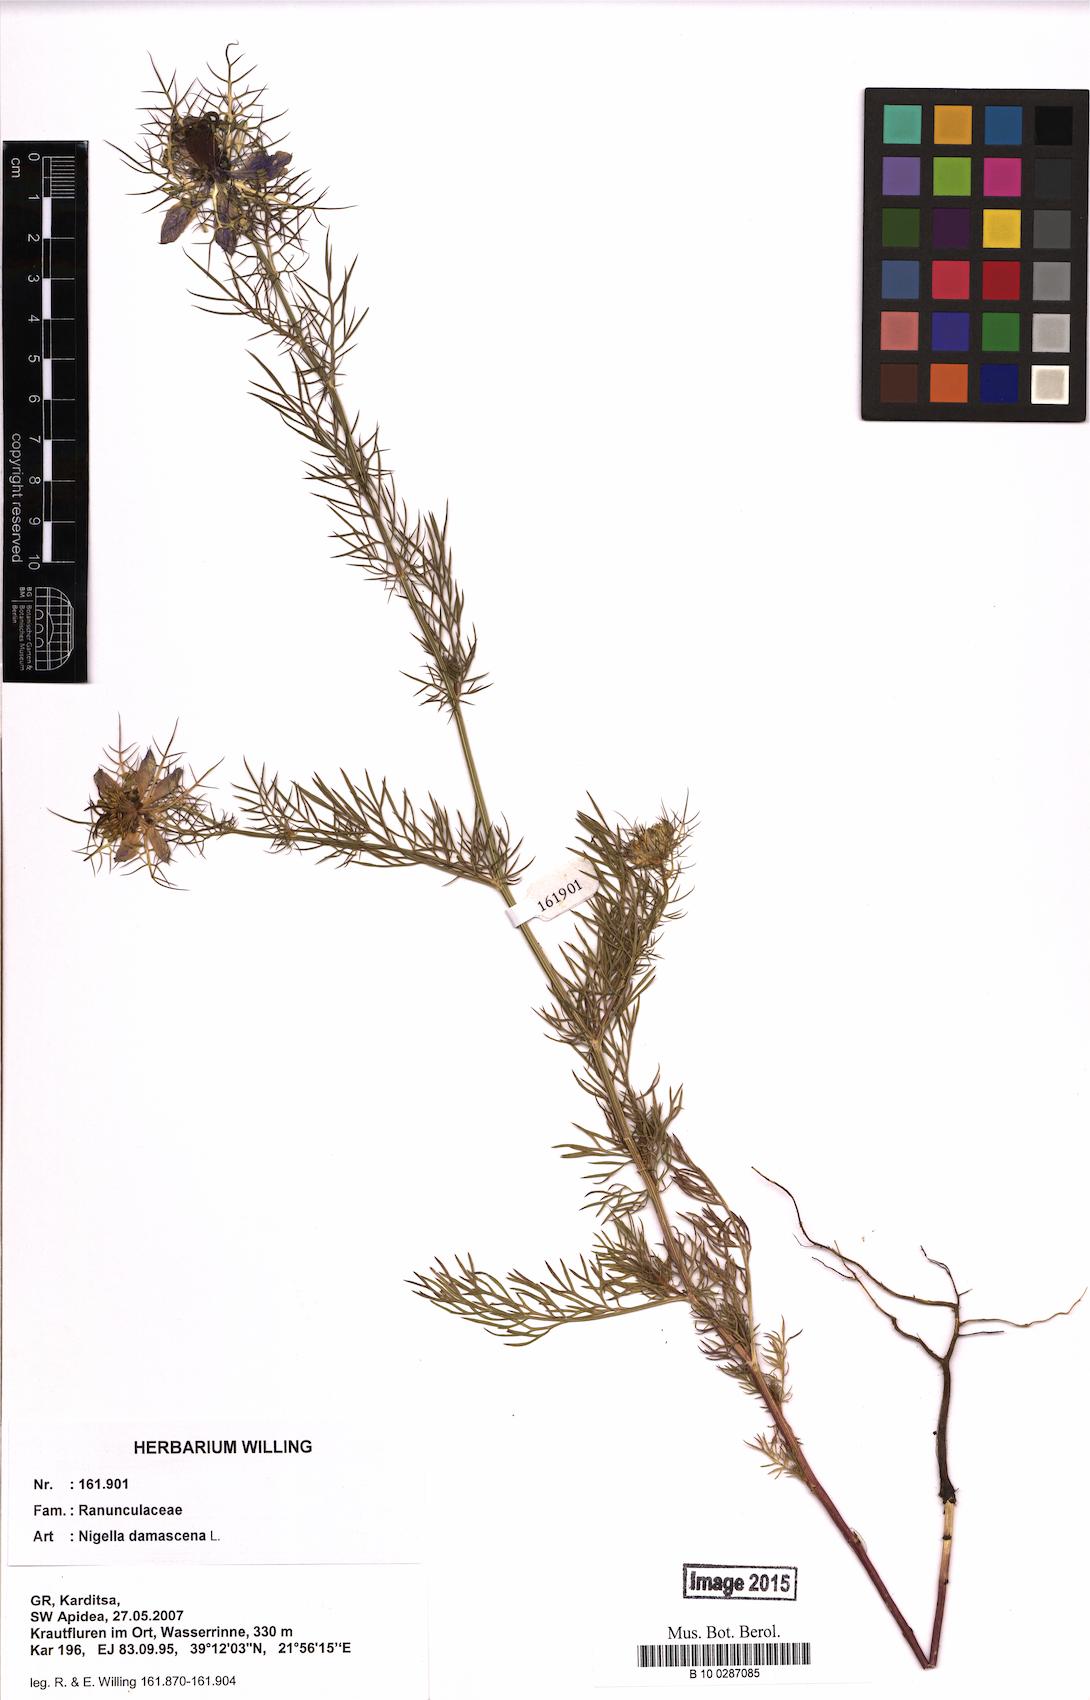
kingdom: Plantae
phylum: Tracheophyta
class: Magnoliopsida
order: Ranunculales
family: Ranunculaceae
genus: Nigella
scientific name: Nigella damascena
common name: Love-in-a-mist
